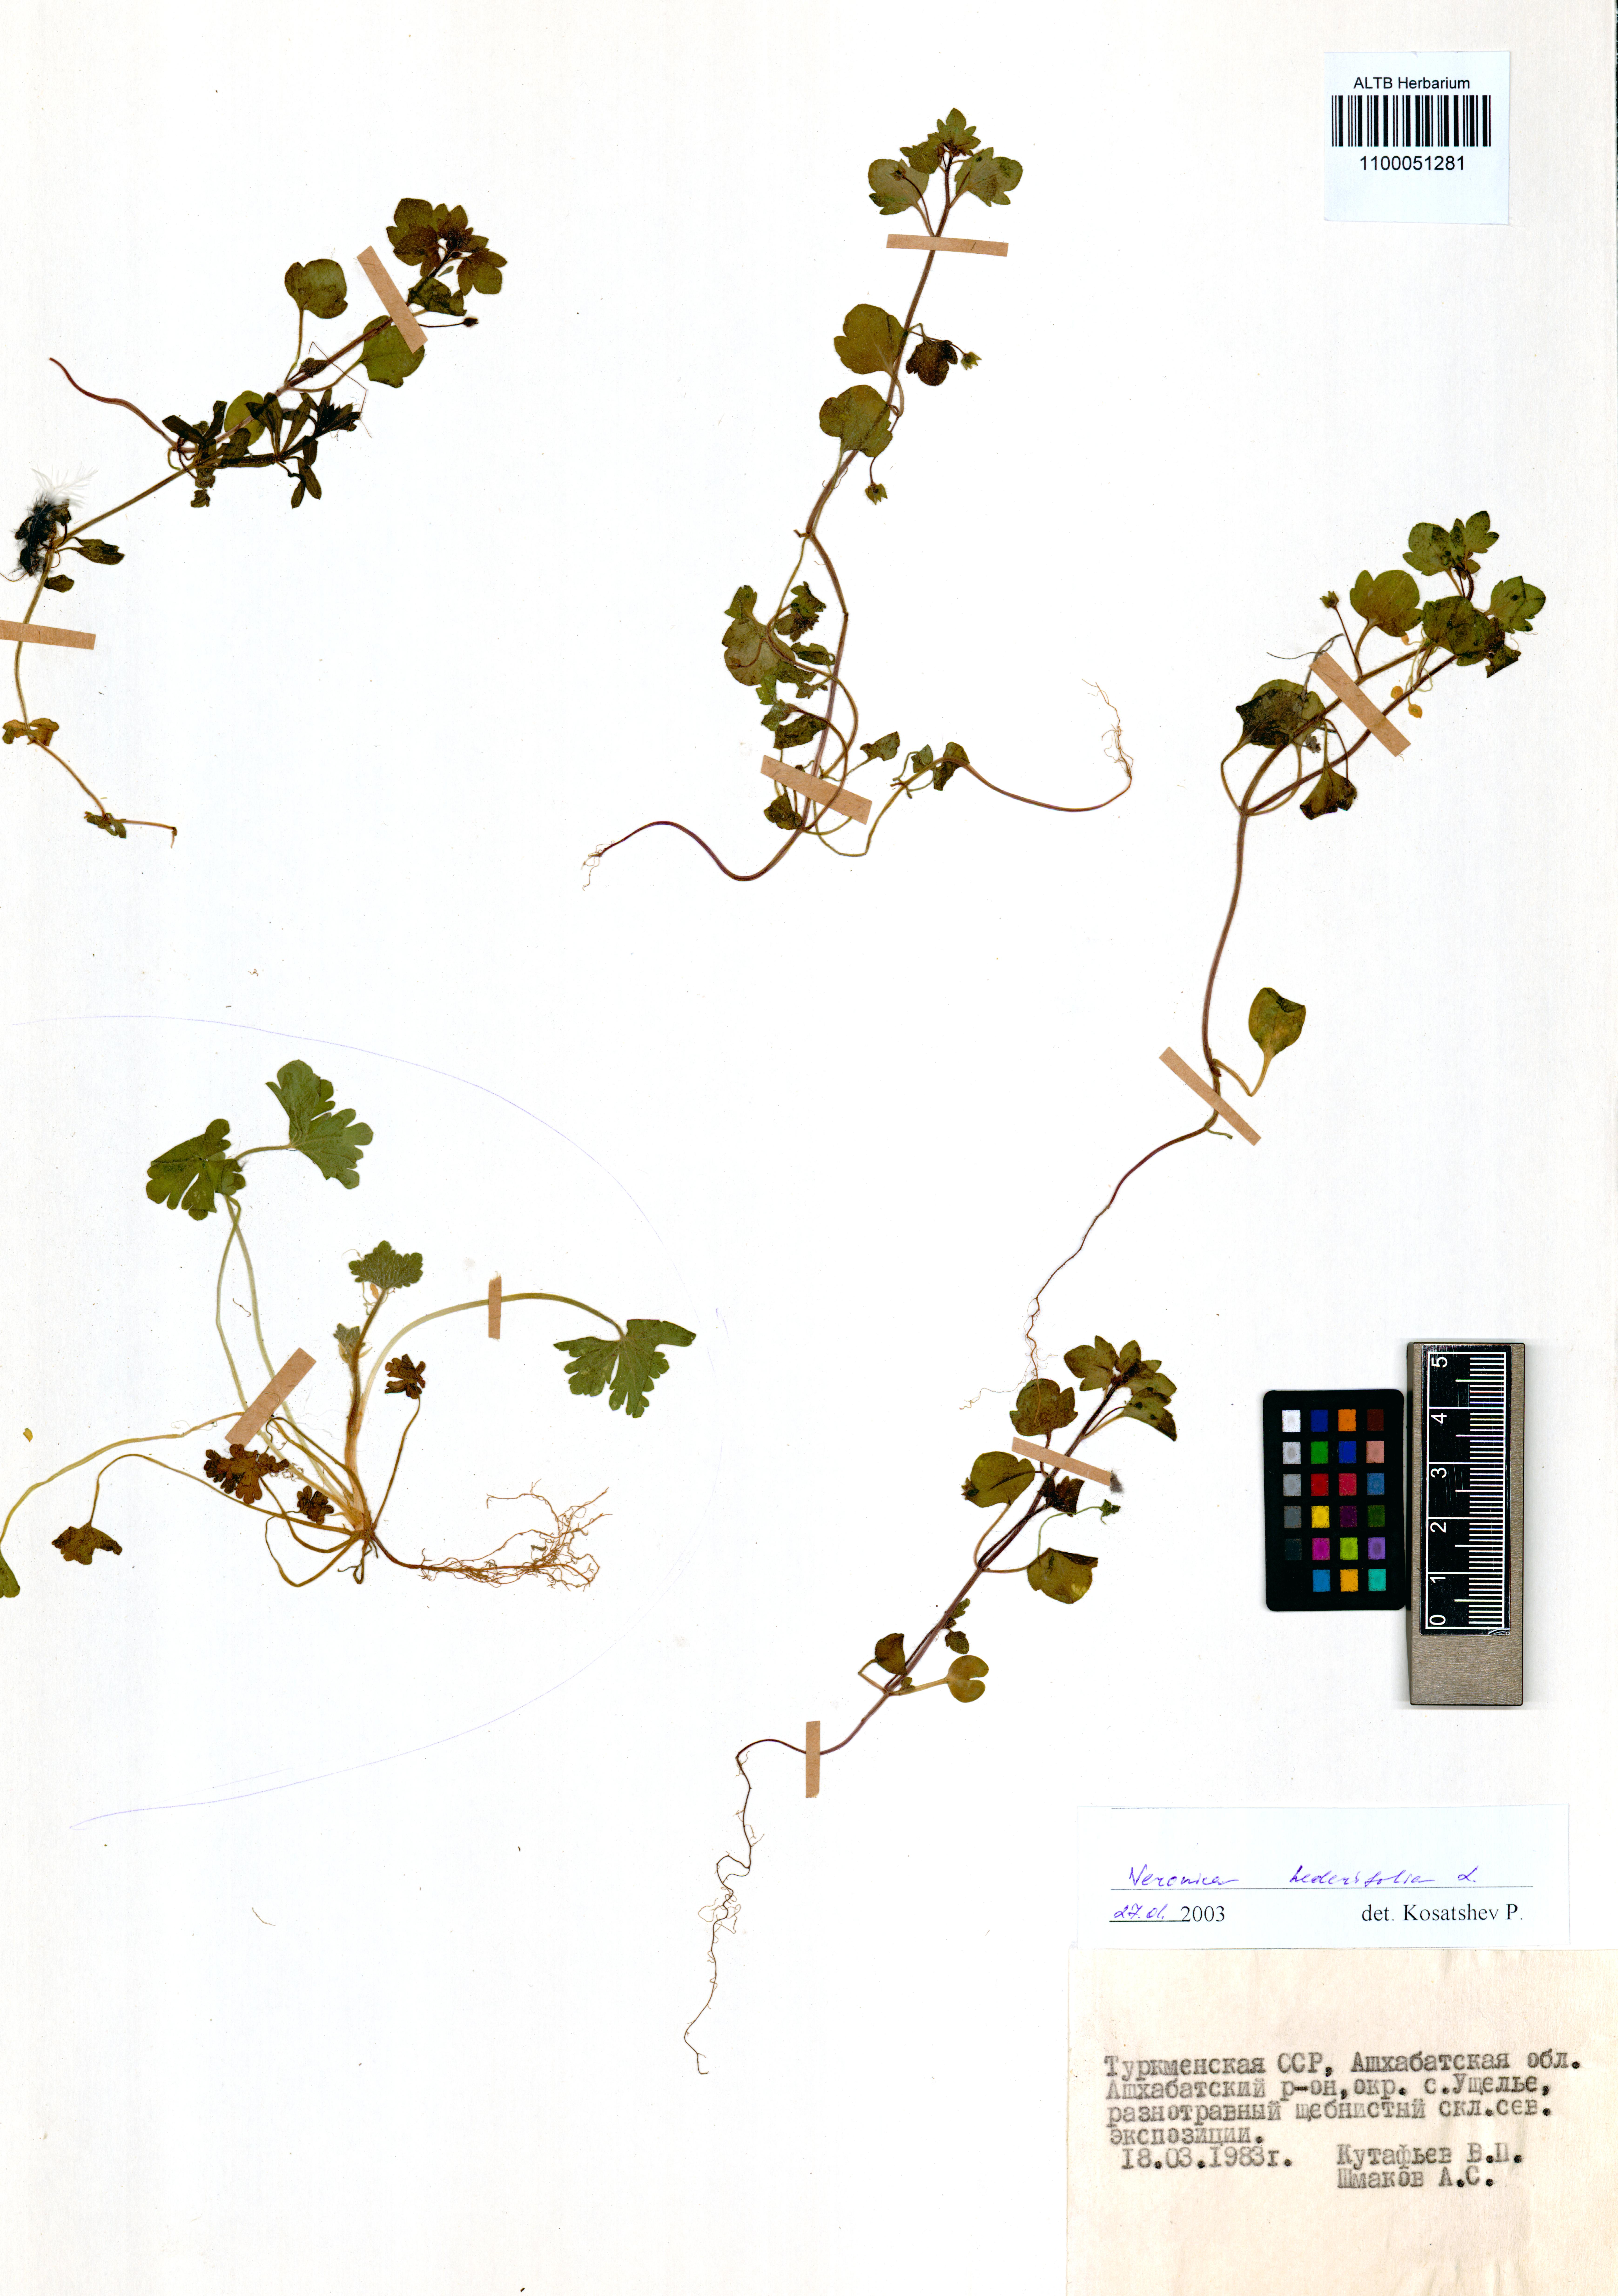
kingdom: Plantae
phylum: Tracheophyta
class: Magnoliopsida
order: Lamiales
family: Plantaginaceae
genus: Veronica
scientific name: Veronica hederifolia
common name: Ivy-leaved speedwell
